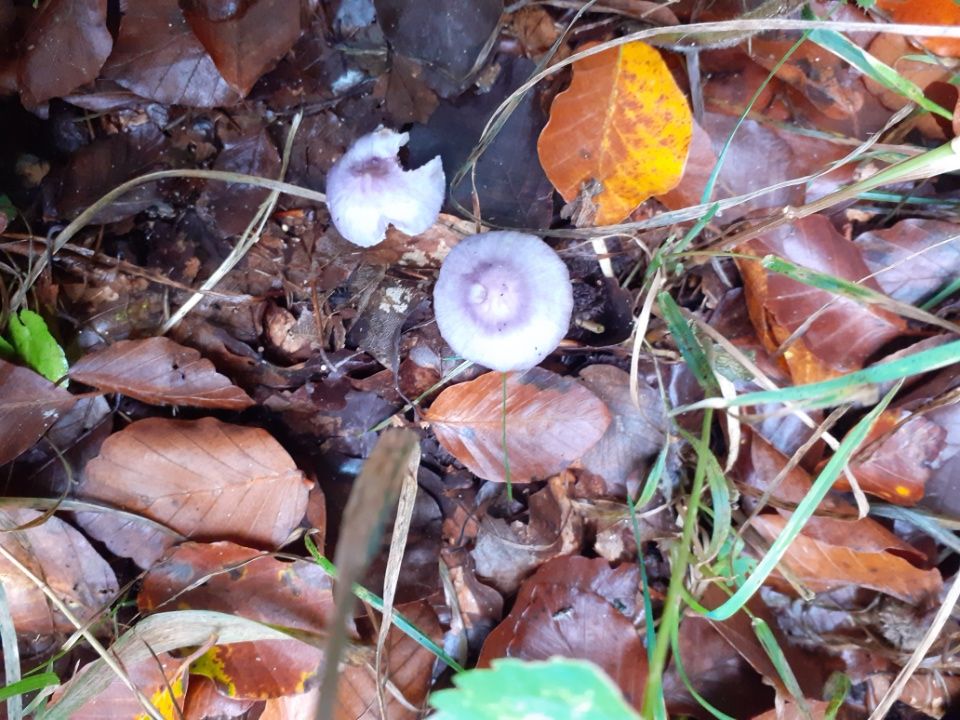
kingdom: Fungi
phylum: Basidiomycota
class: Agaricomycetes
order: Agaricales
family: Inocybaceae
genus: Inocybe
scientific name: Inocybe geophylla
